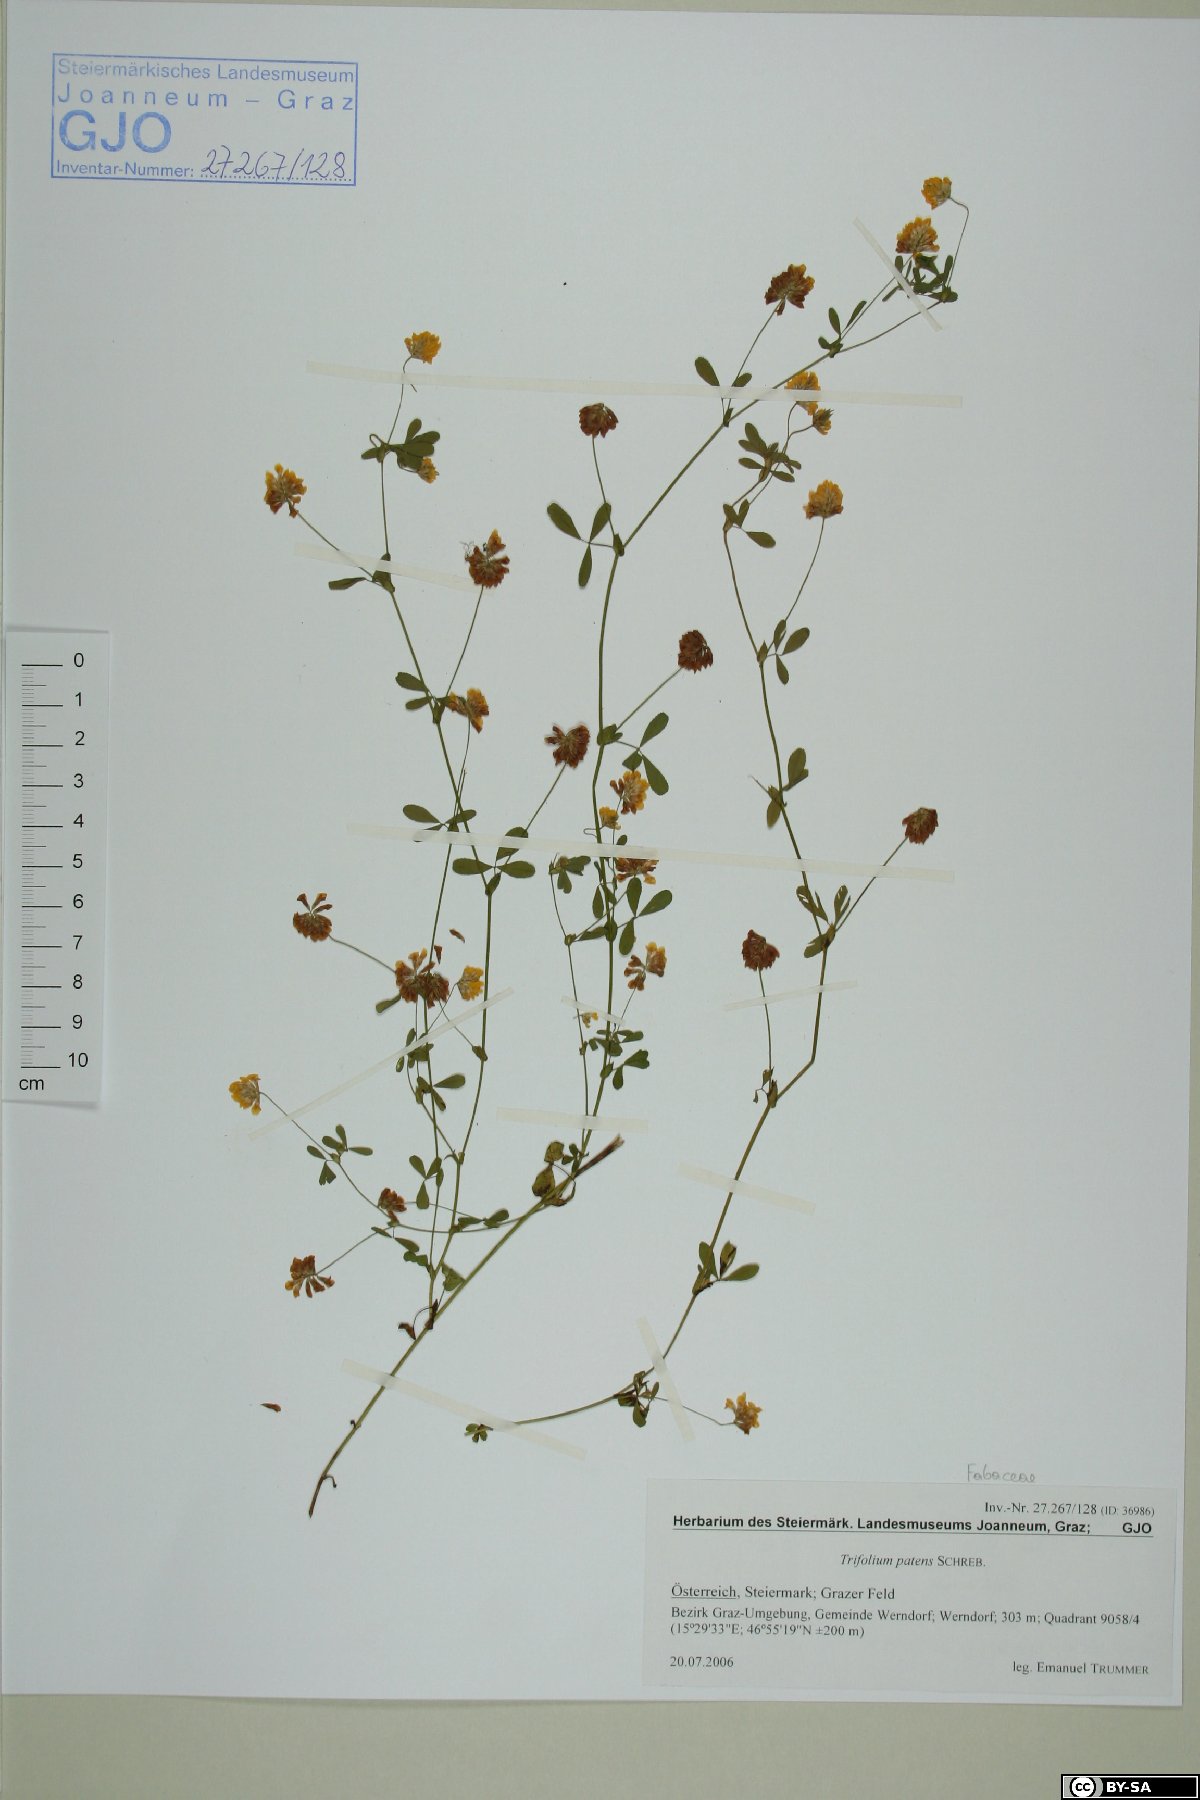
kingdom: Plantae
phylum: Tracheophyta
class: Magnoliopsida
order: Fabales
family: Fabaceae
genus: Trifolium
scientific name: Trifolium patens
